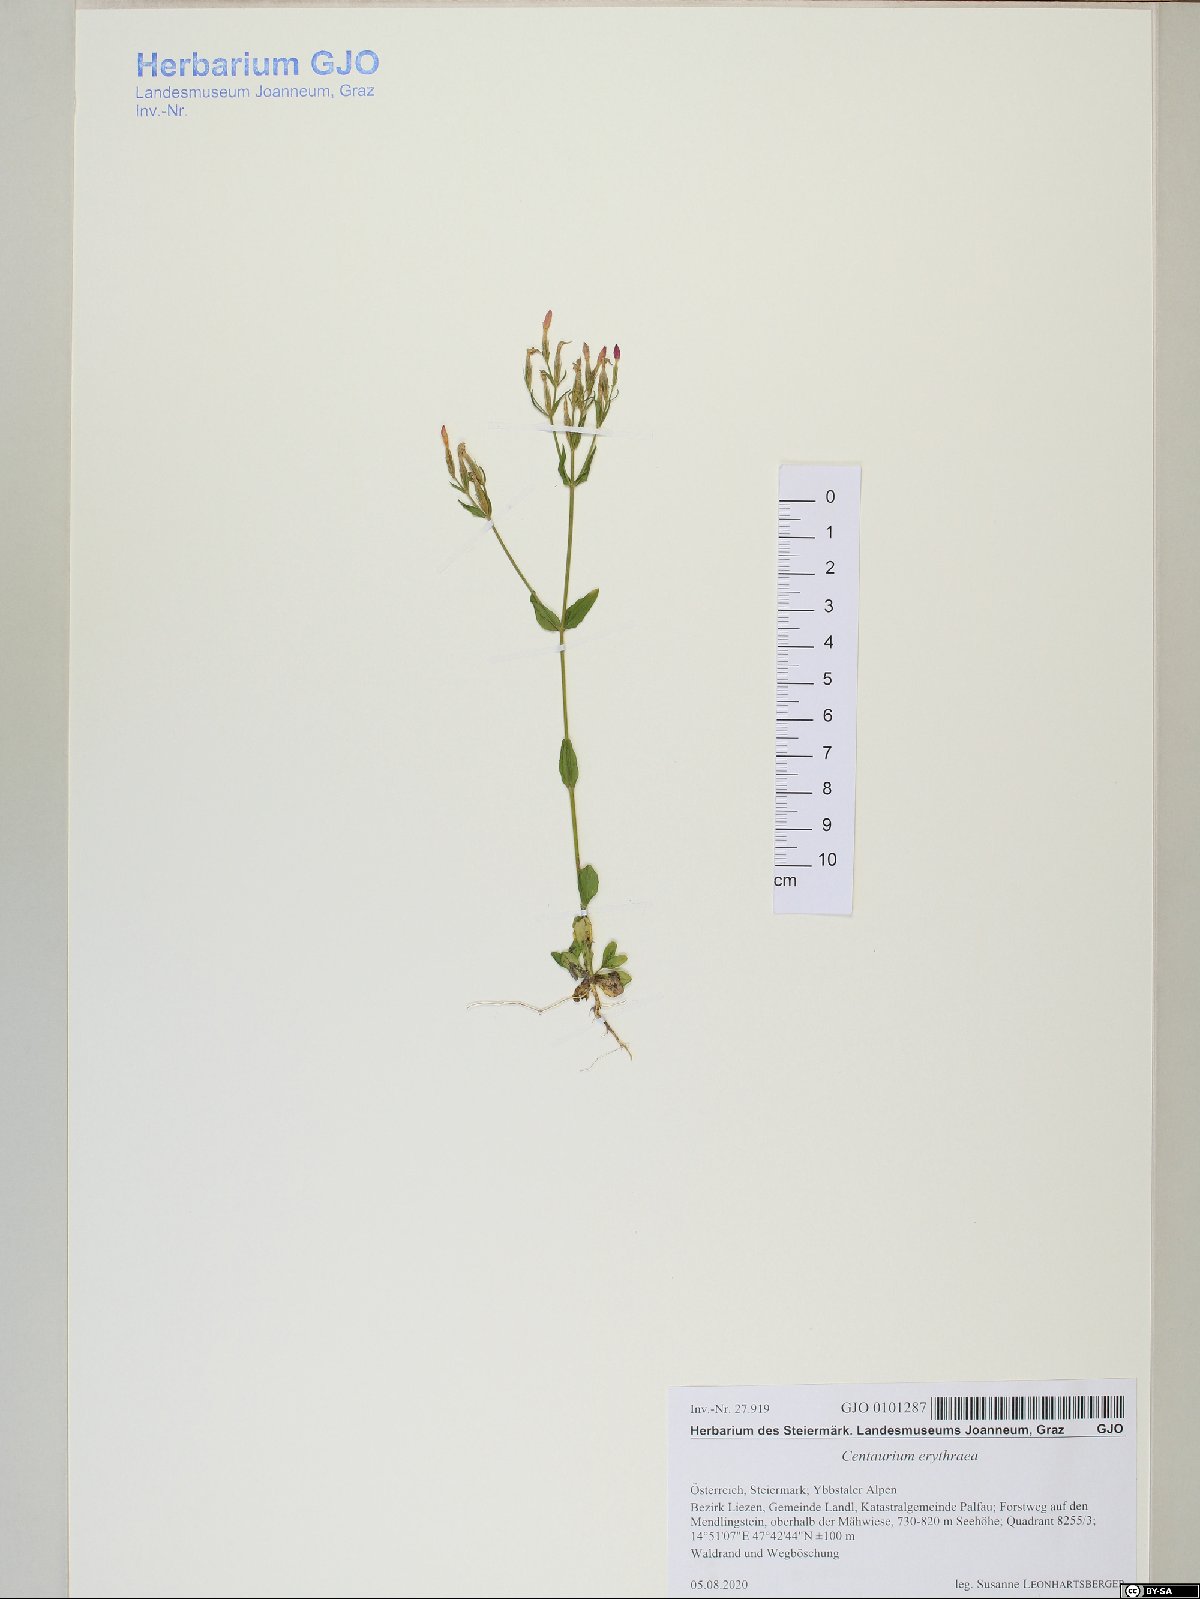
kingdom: Plantae
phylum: Tracheophyta
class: Magnoliopsida
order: Gentianales
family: Gentianaceae
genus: Centaurium
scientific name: Centaurium erythraea
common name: Common centaury
